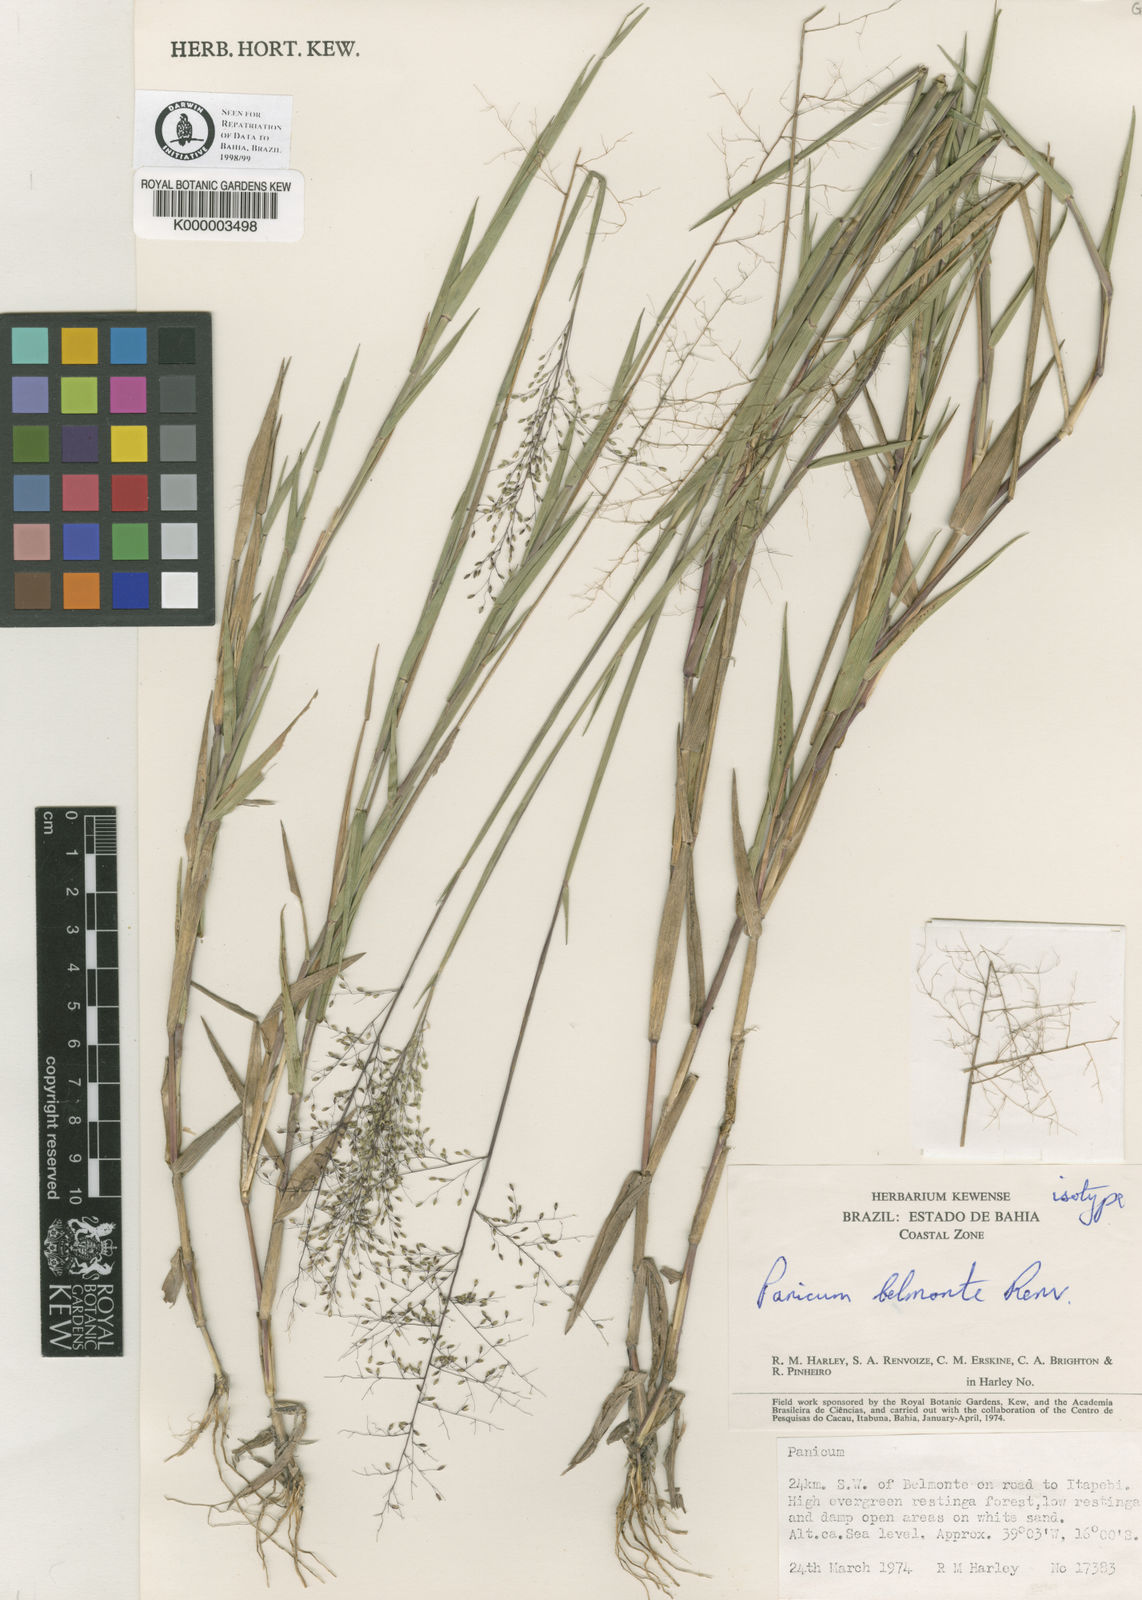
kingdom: Plantae
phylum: Tracheophyta
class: Liliopsida
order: Poales
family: Poaceae
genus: Dichanthelium
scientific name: Dichanthelium aequivaginatum
